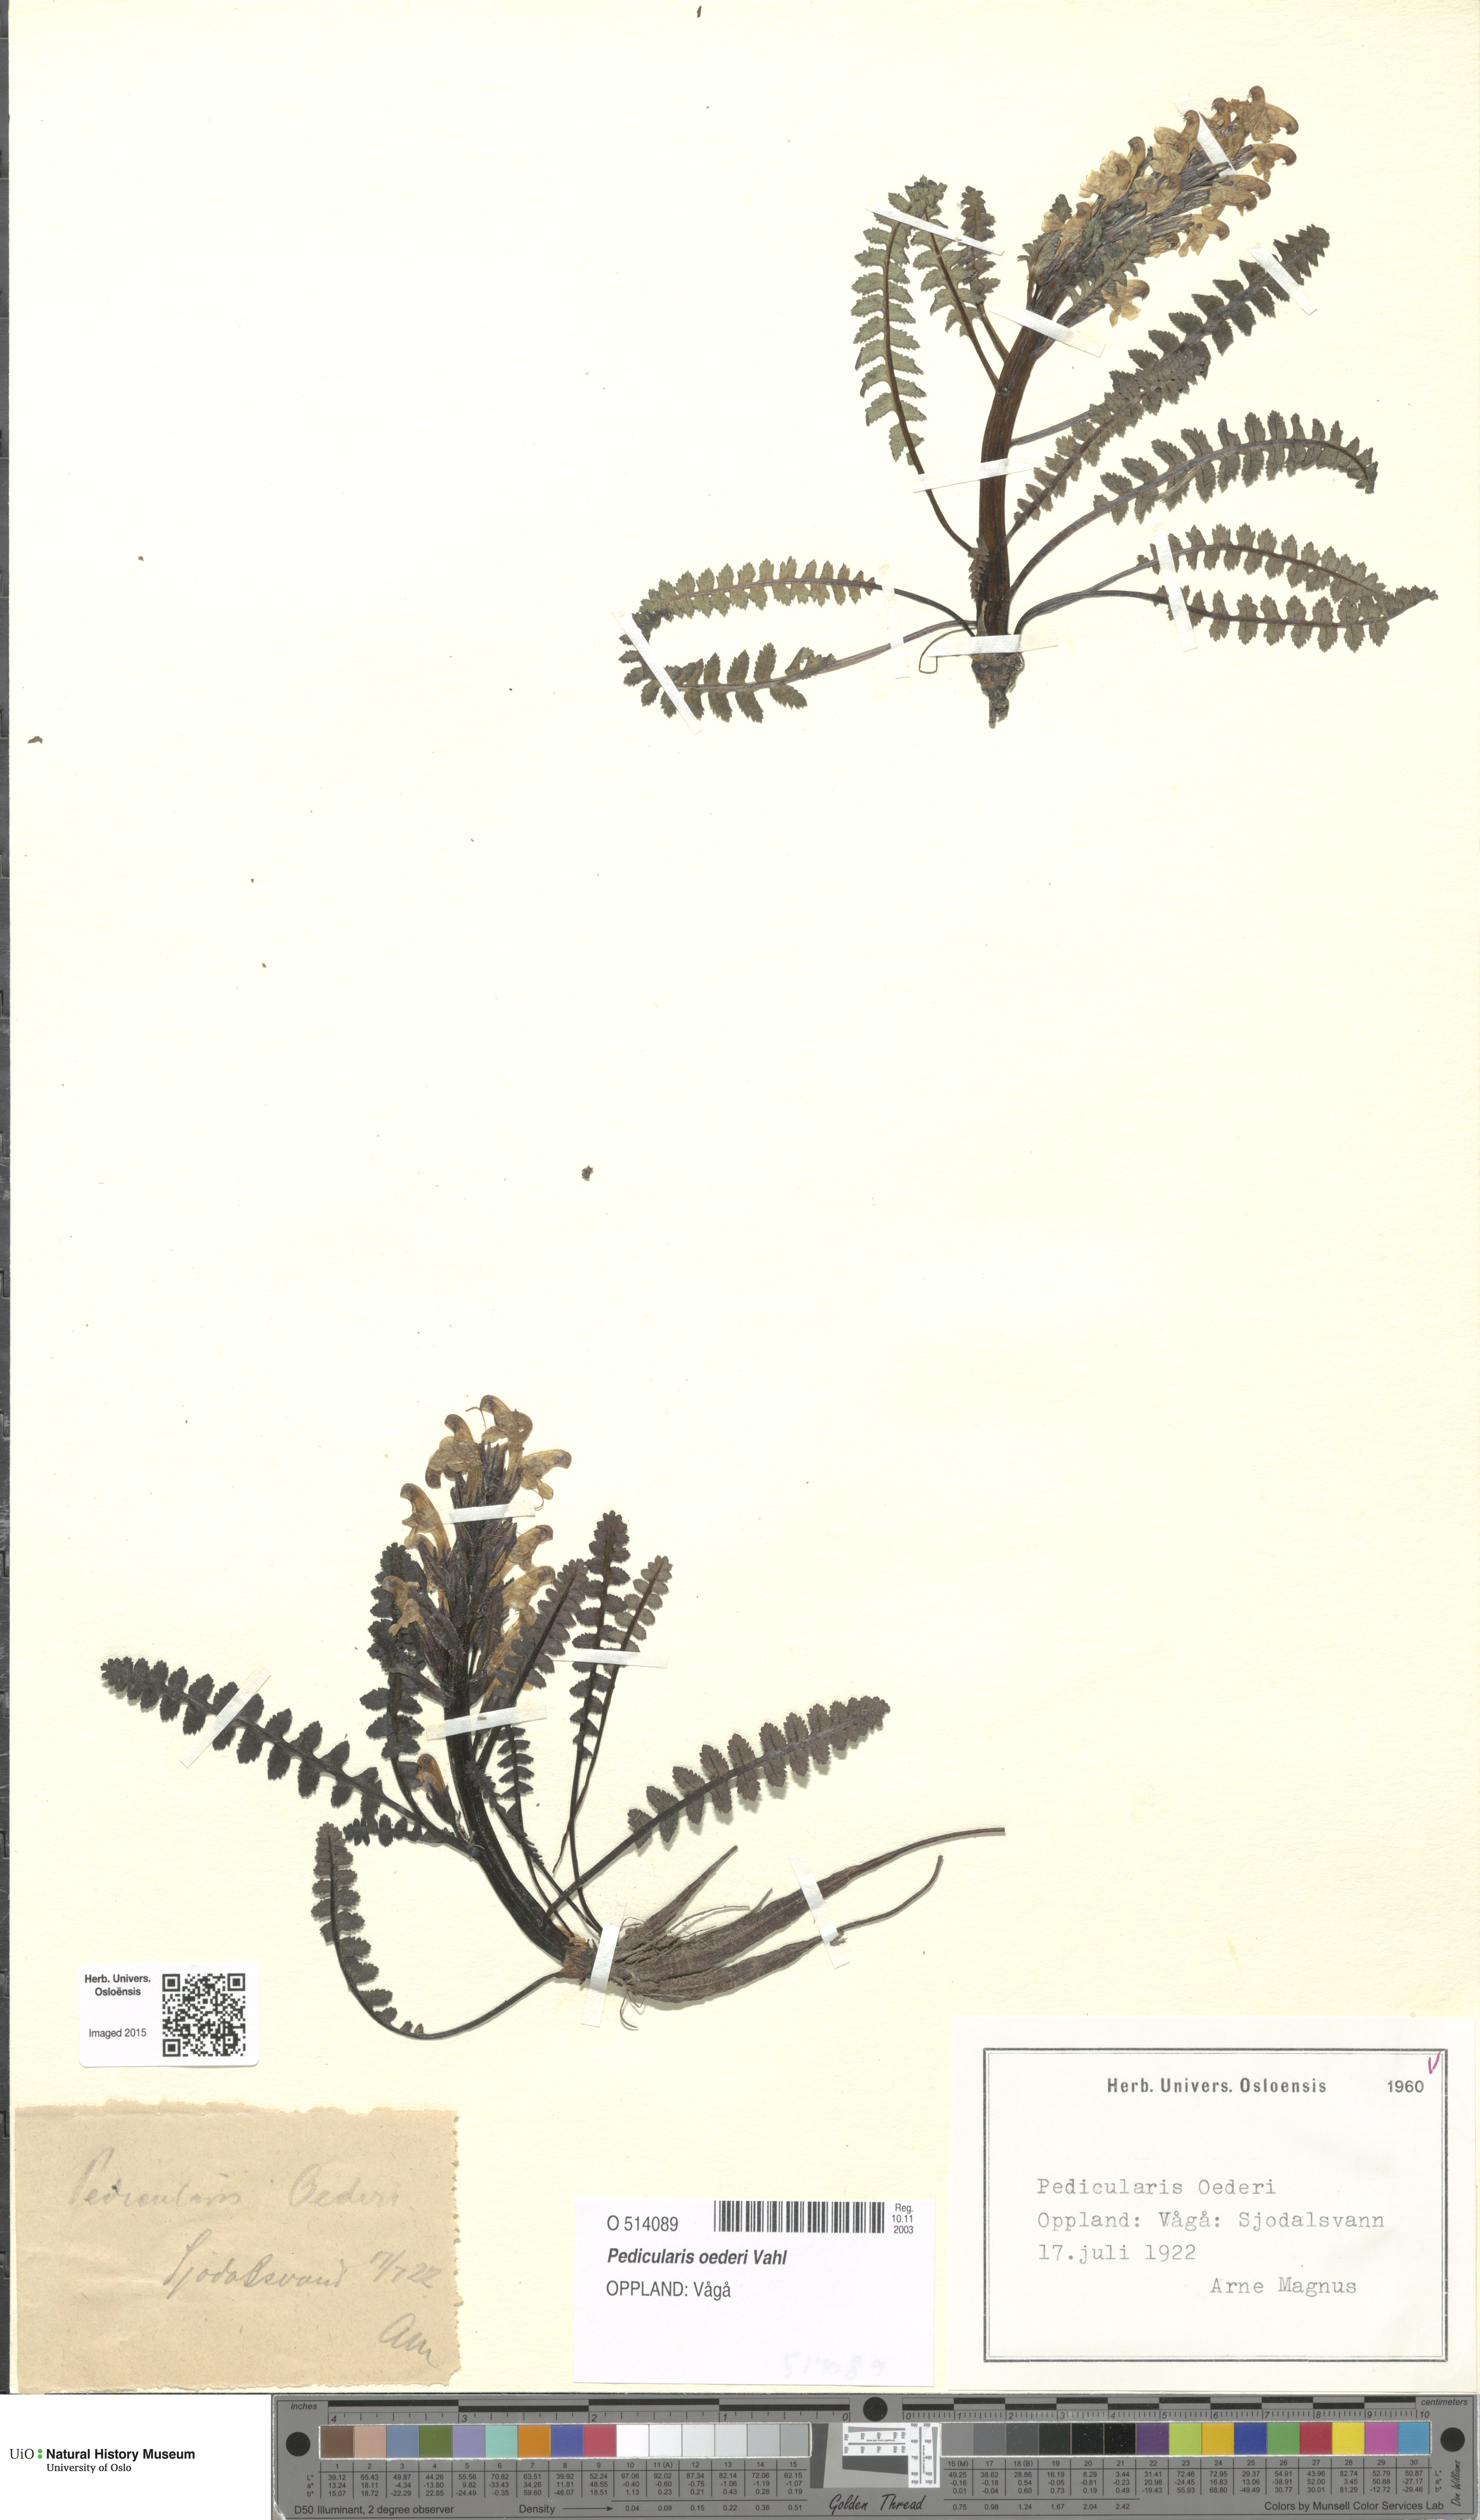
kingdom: Plantae
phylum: Tracheophyta
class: Magnoliopsida
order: Lamiales
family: Orobanchaceae
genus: Pedicularis
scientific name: Pedicularis oederi
